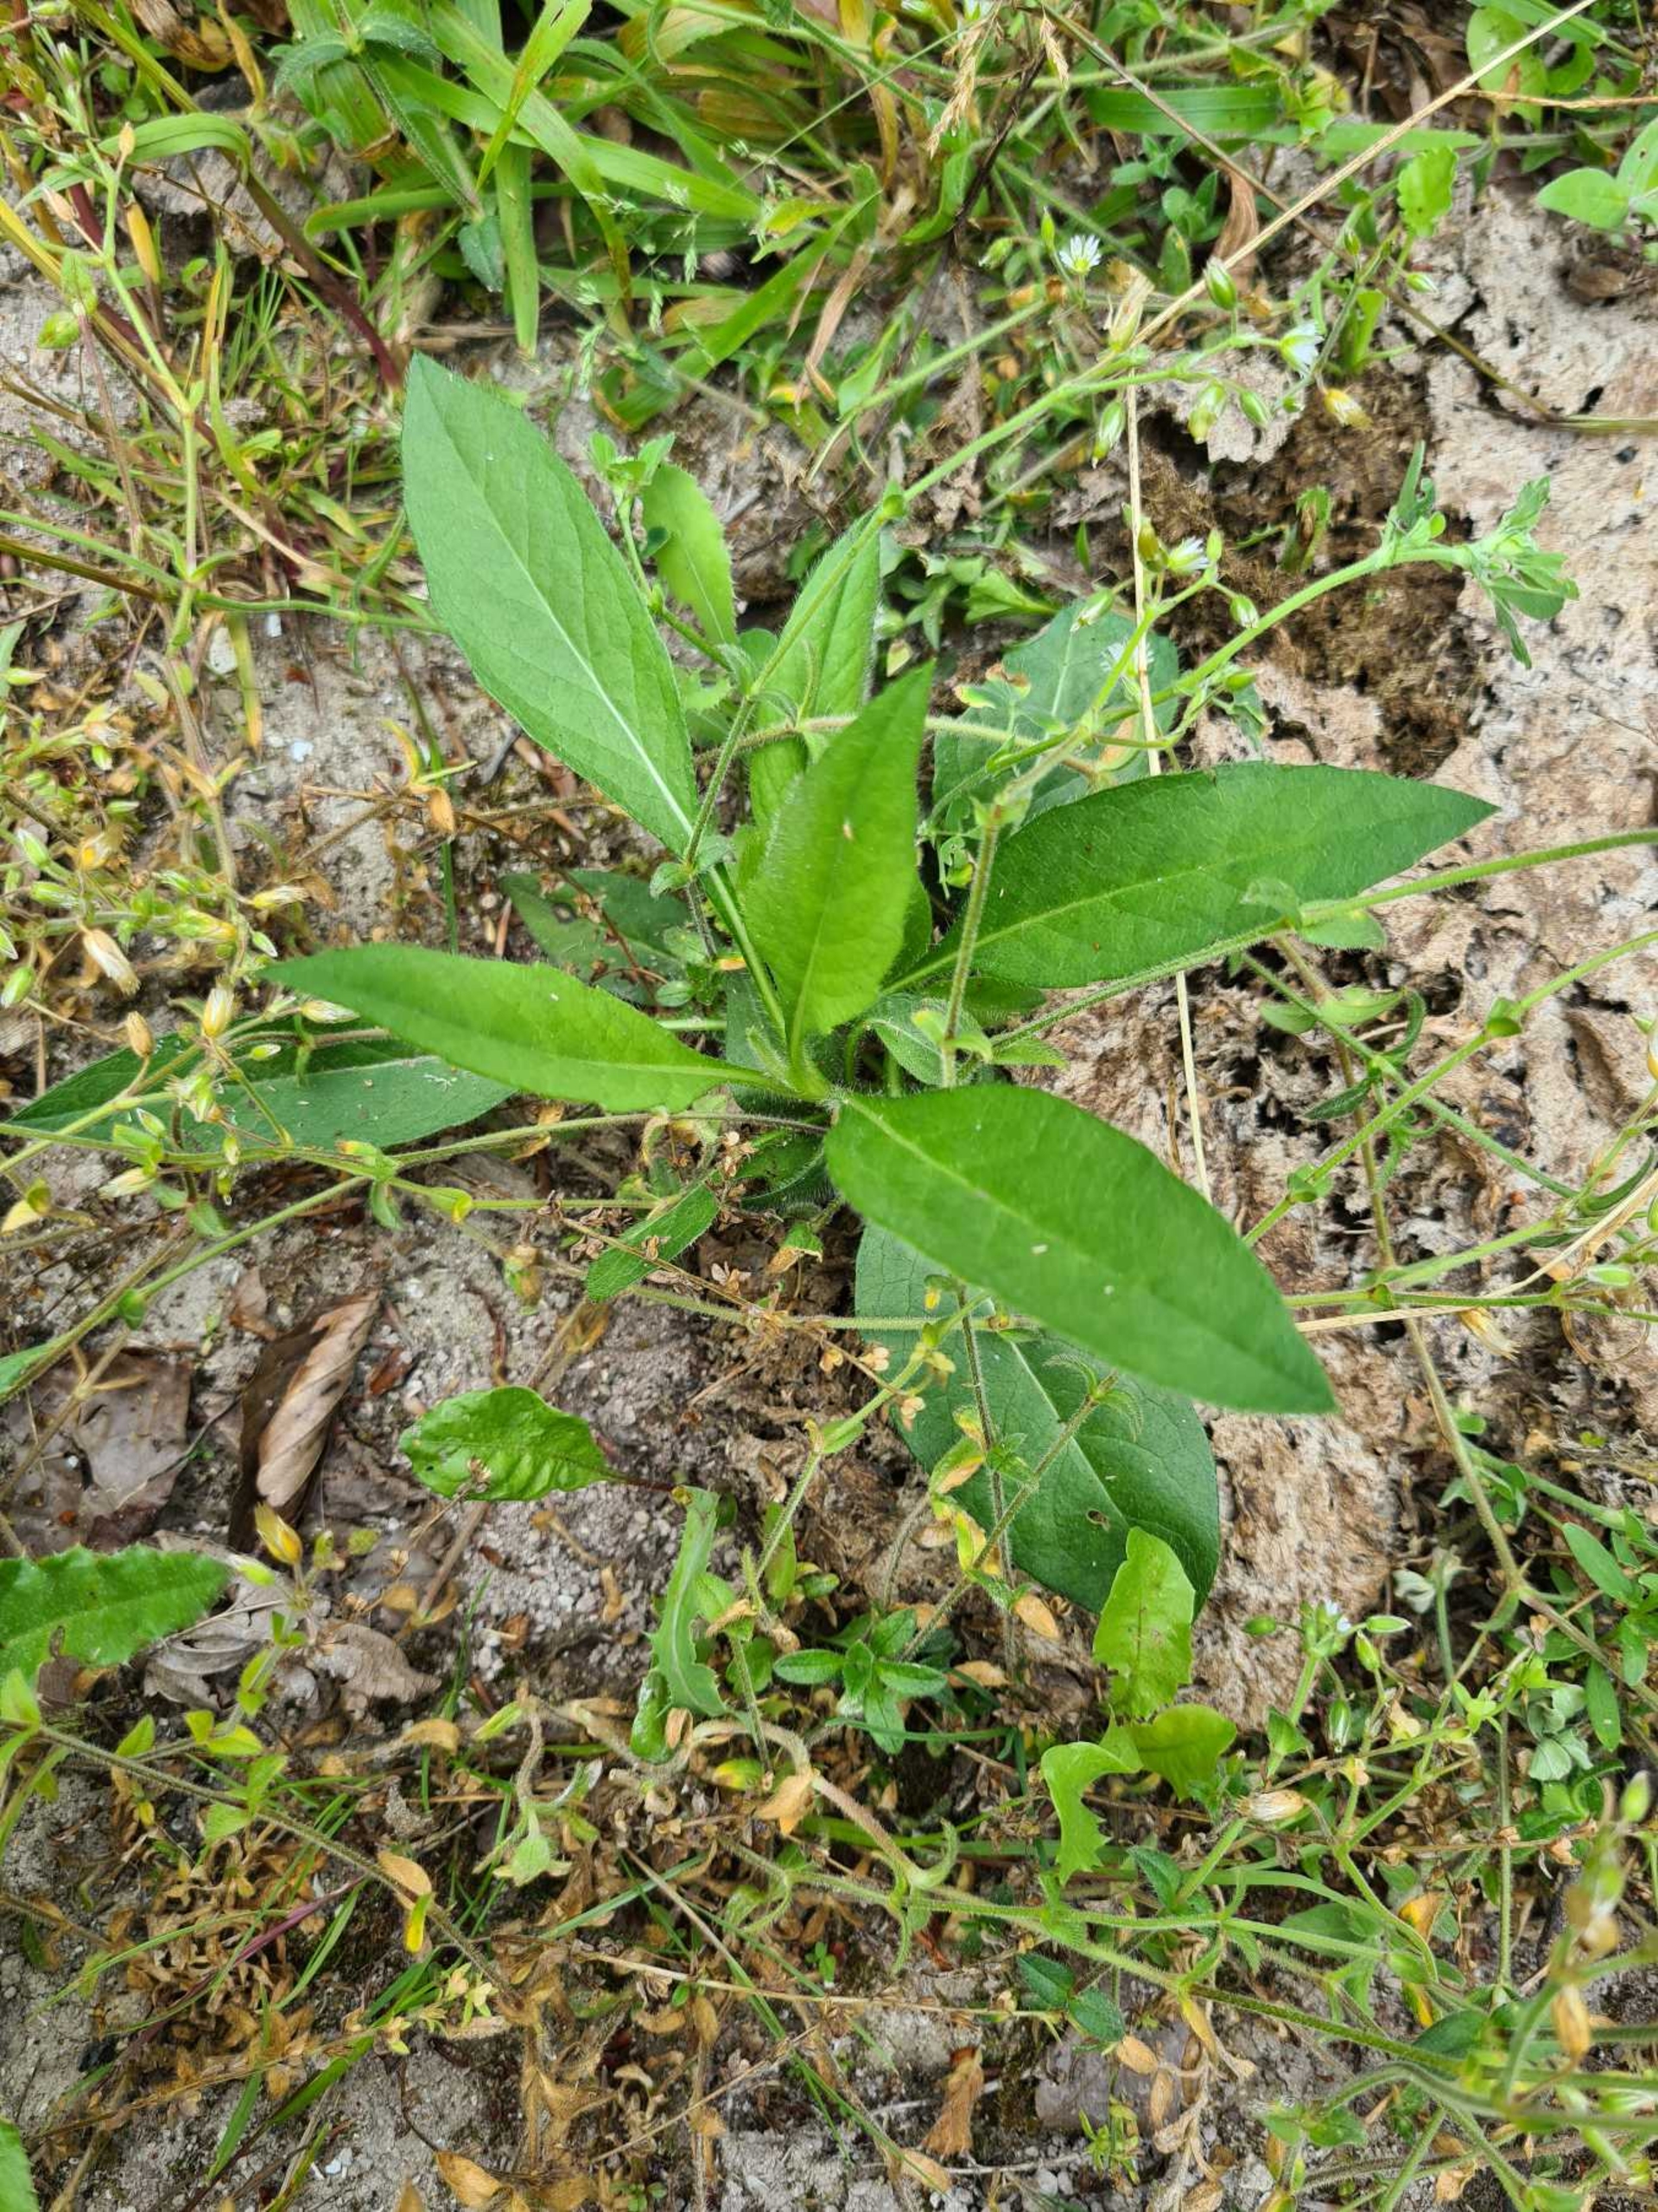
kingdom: Plantae
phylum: Tracheophyta
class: Magnoliopsida
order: Dipsacales
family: Caprifoliaceae
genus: Succisa
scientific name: Succisa pratensis
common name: Djævelsbid
